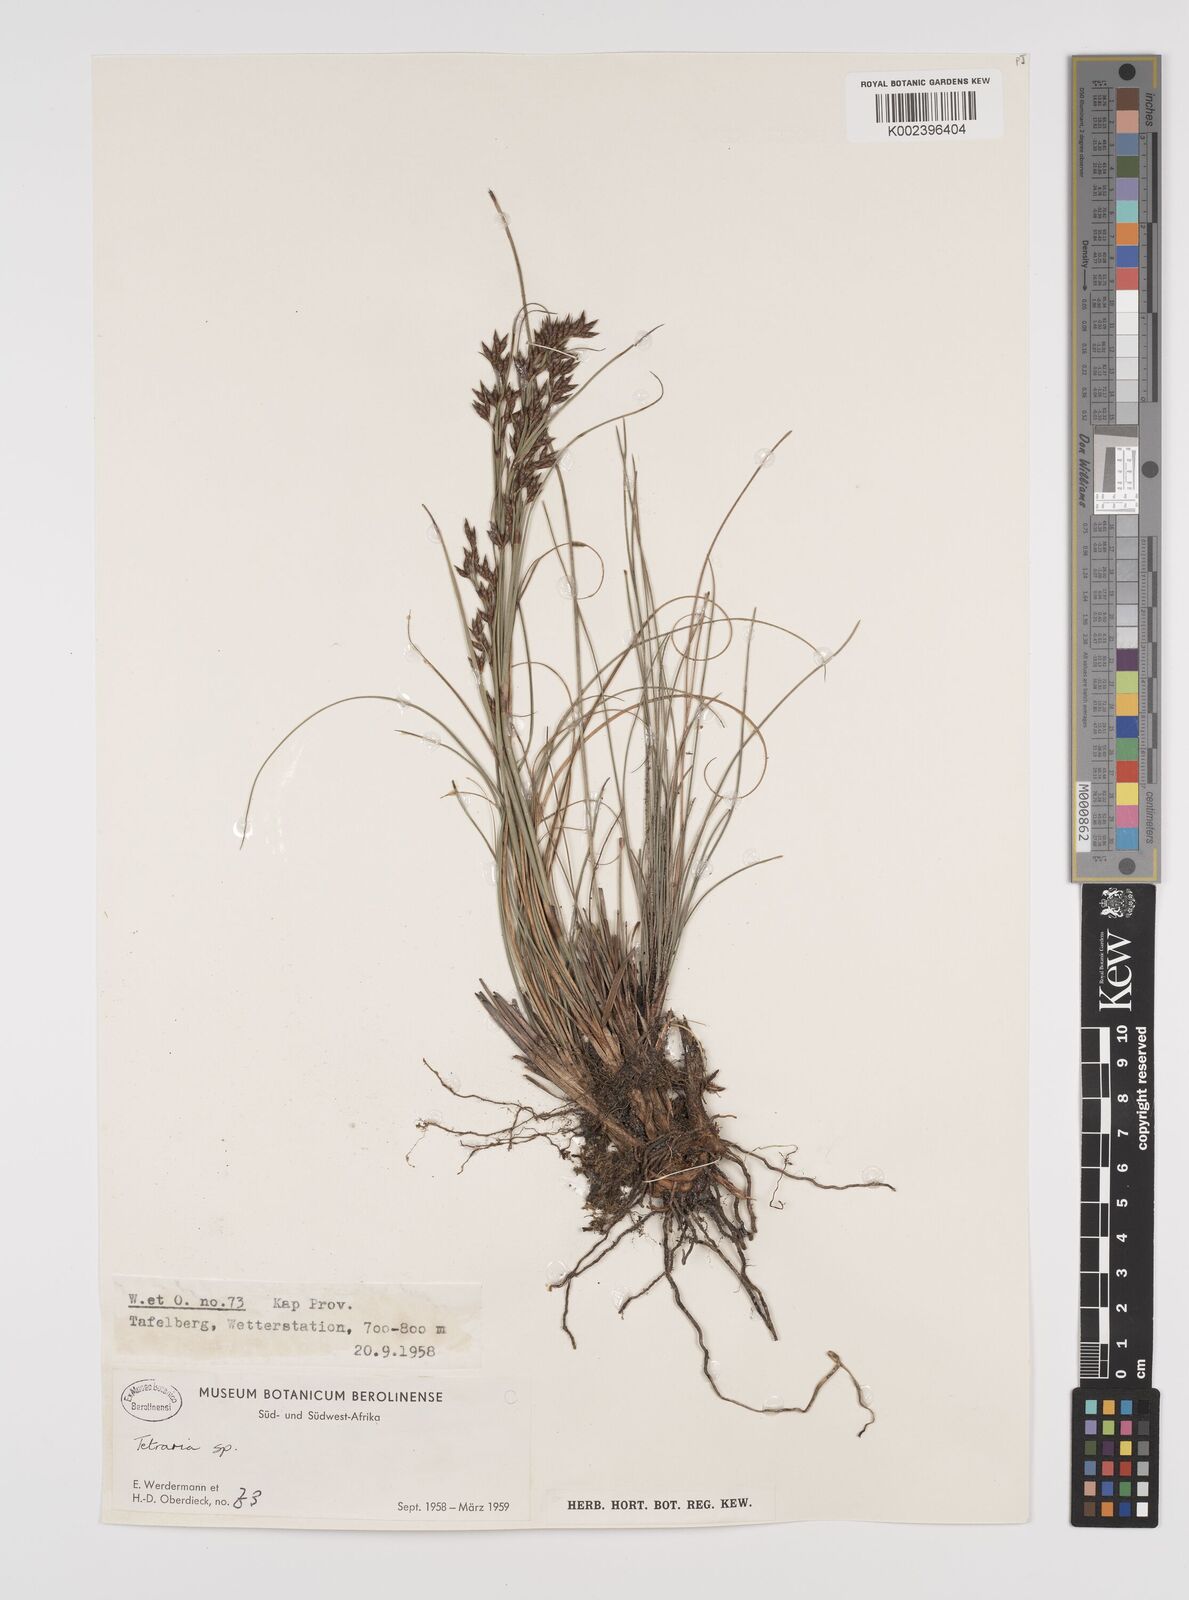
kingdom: Plantae
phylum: Tracheophyta
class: Liliopsida
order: Poales
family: Cyperaceae
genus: Tetraria
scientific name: Tetraria
